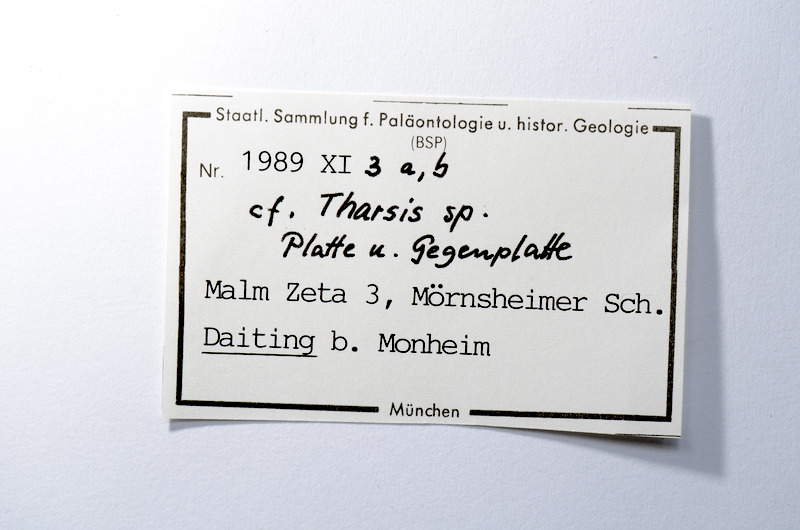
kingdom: Animalia
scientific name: Animalia
